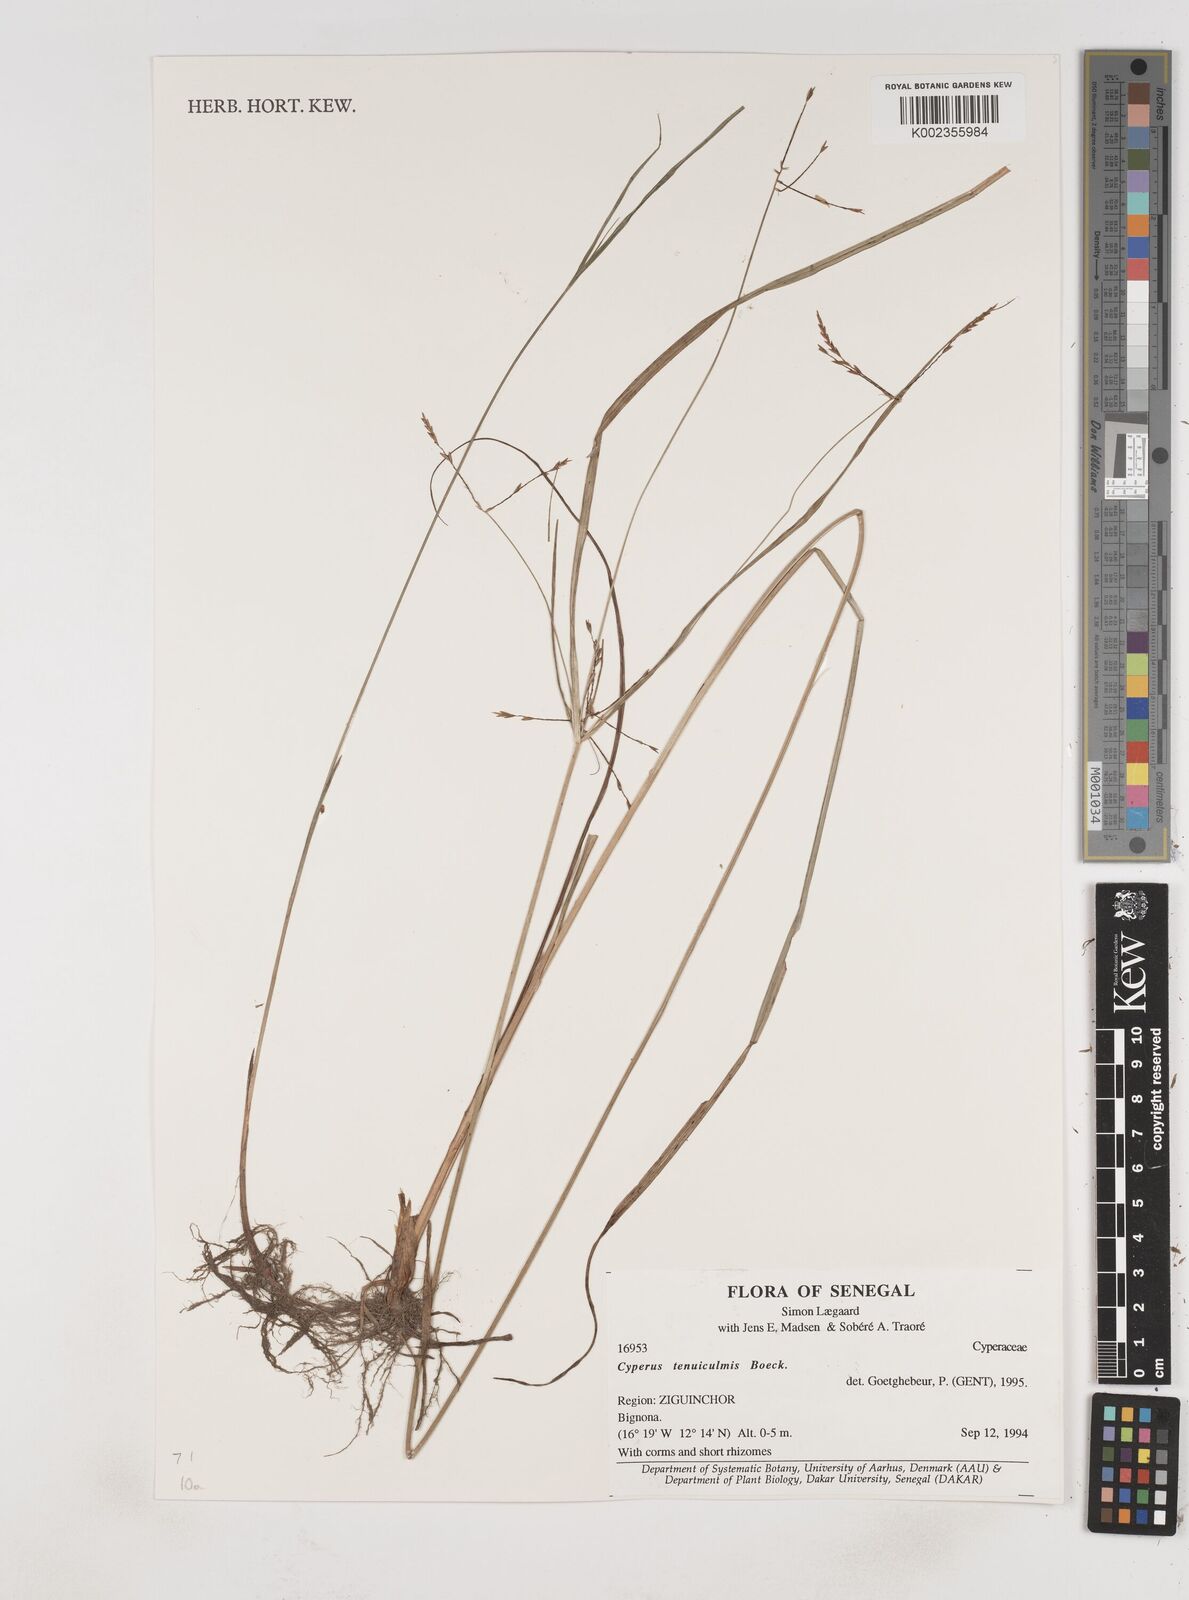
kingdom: Plantae
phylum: Tracheophyta
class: Liliopsida
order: Poales
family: Cyperaceae
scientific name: Cyperaceae
